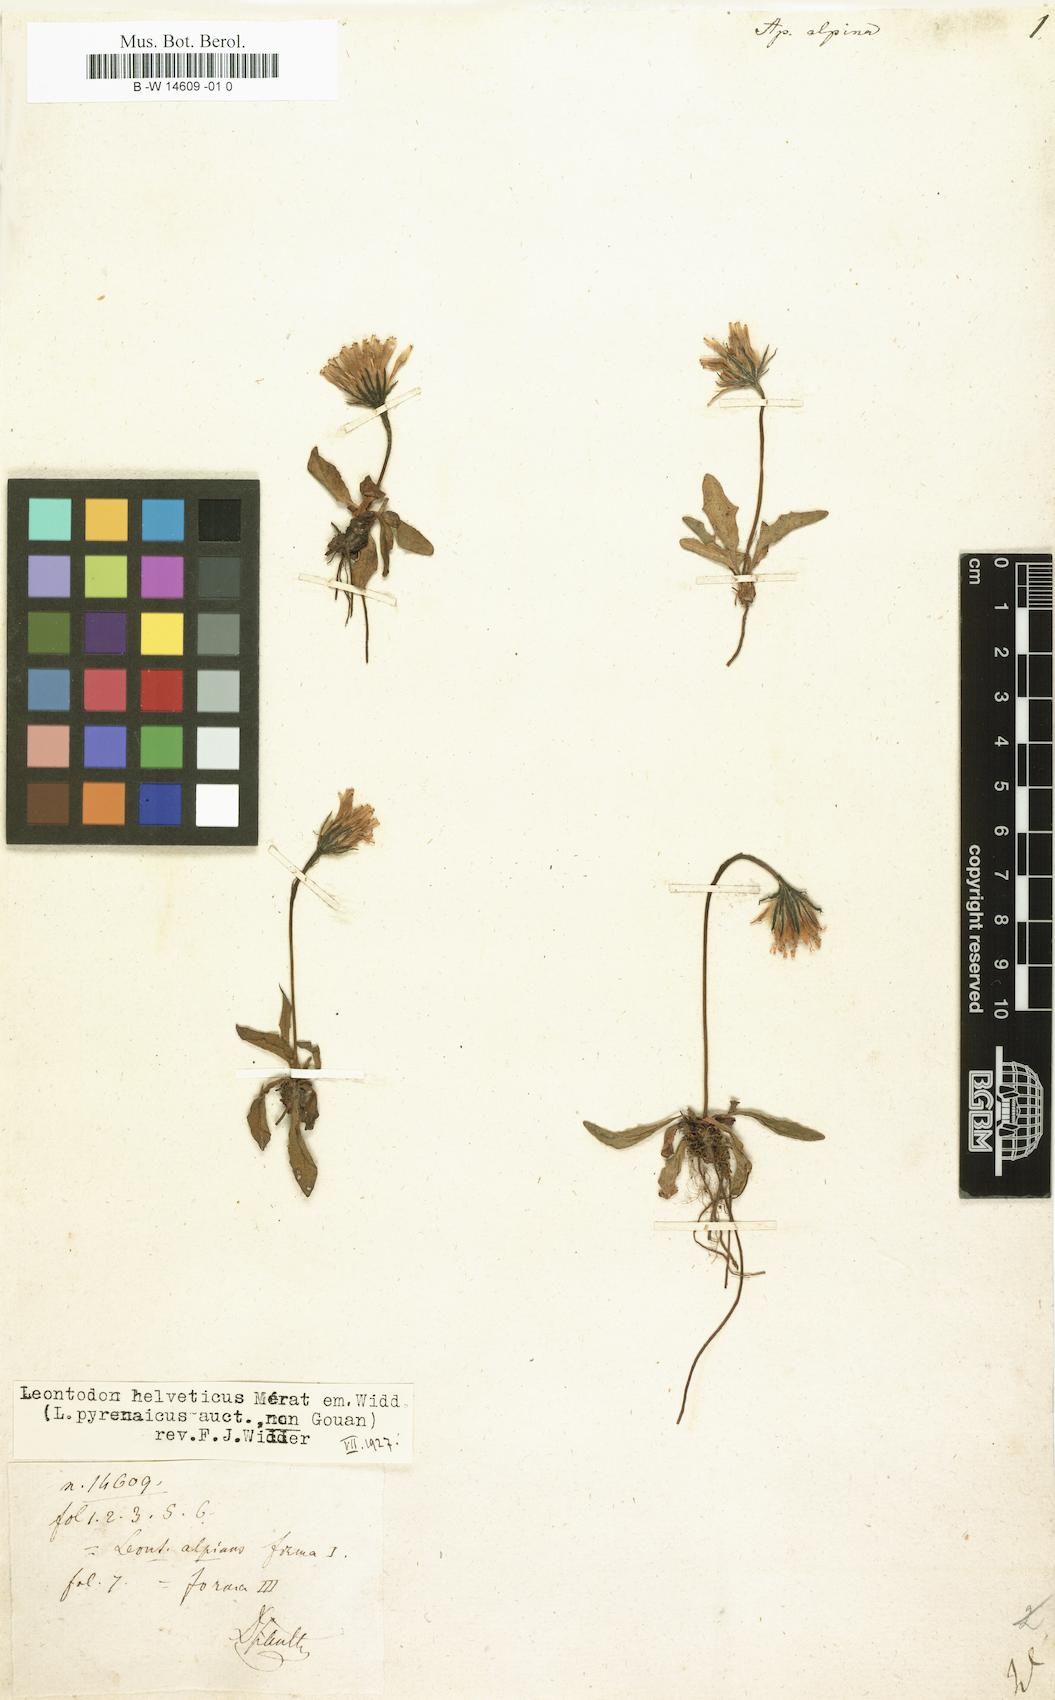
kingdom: Plantae
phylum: Tracheophyta
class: Magnoliopsida
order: Asterales
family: Asteraceae
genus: Scorzoneroides
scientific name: Scorzoneroides pyrenaica
